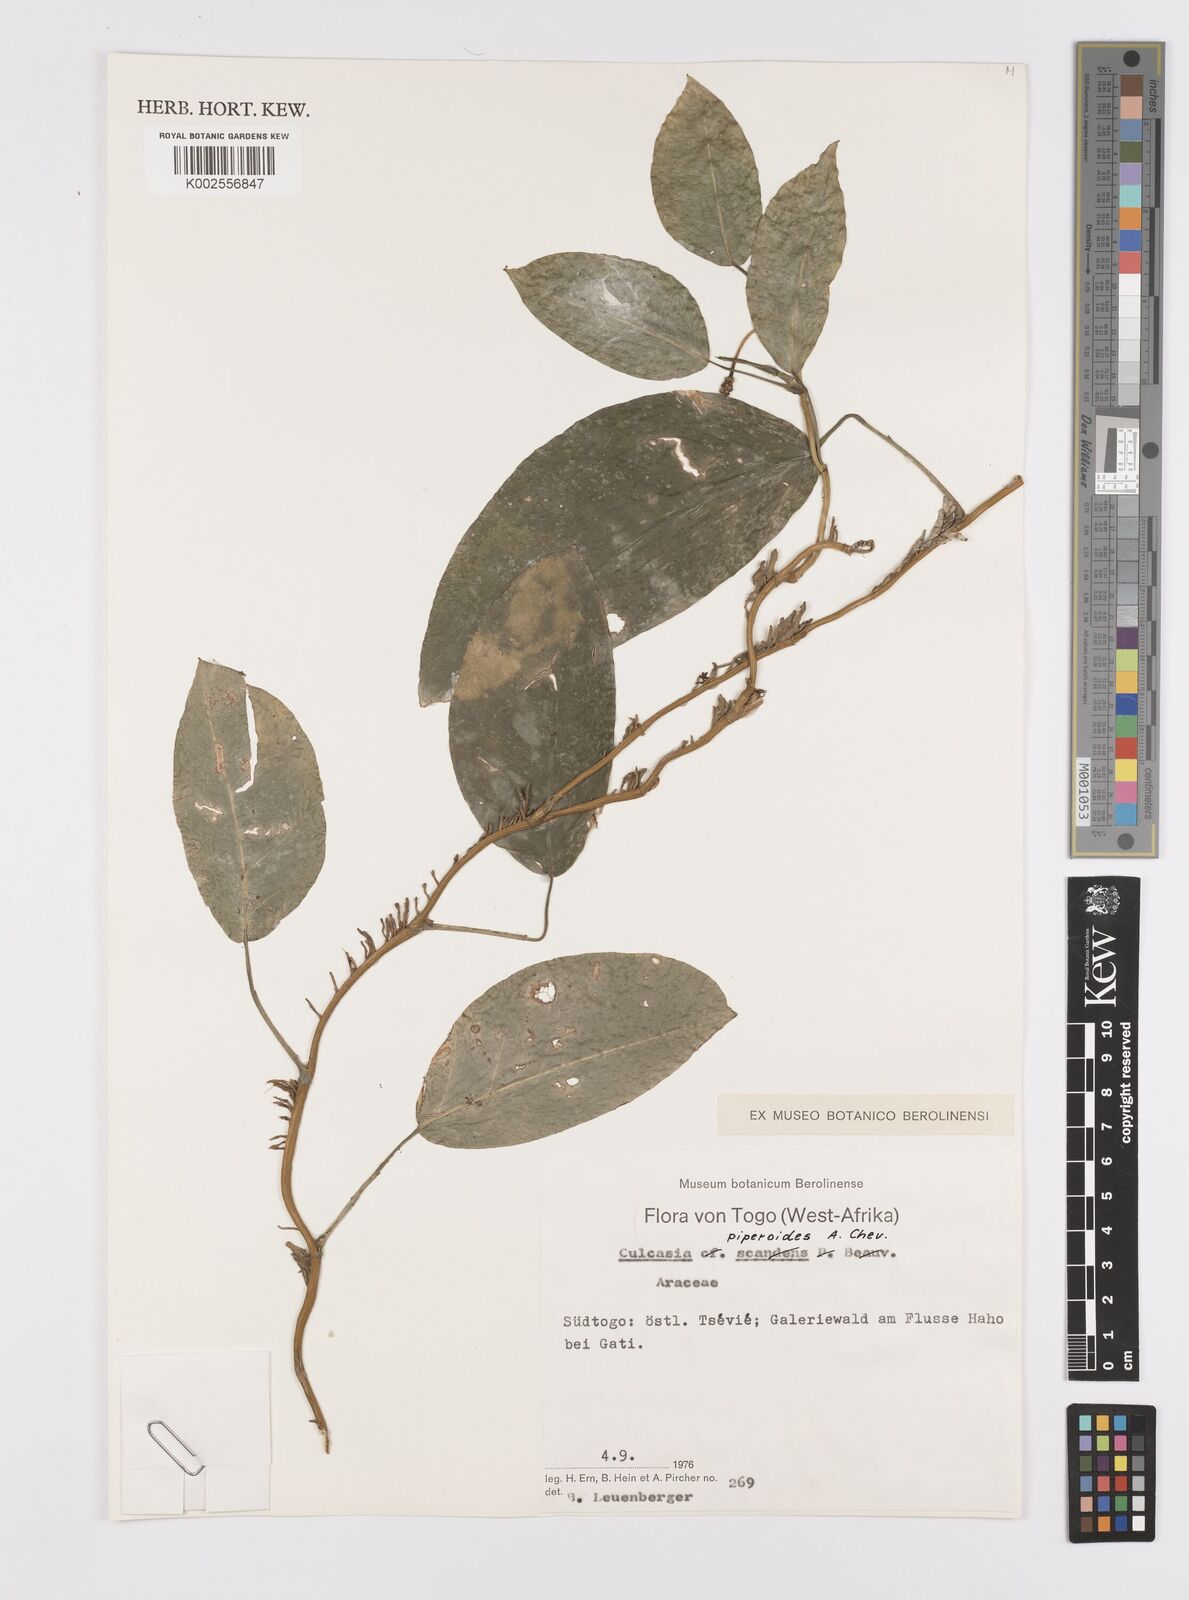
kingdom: Plantae
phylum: Tracheophyta
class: Liliopsida
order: Alismatales
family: Araceae
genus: Culcasia
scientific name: Culcasia parviflora
